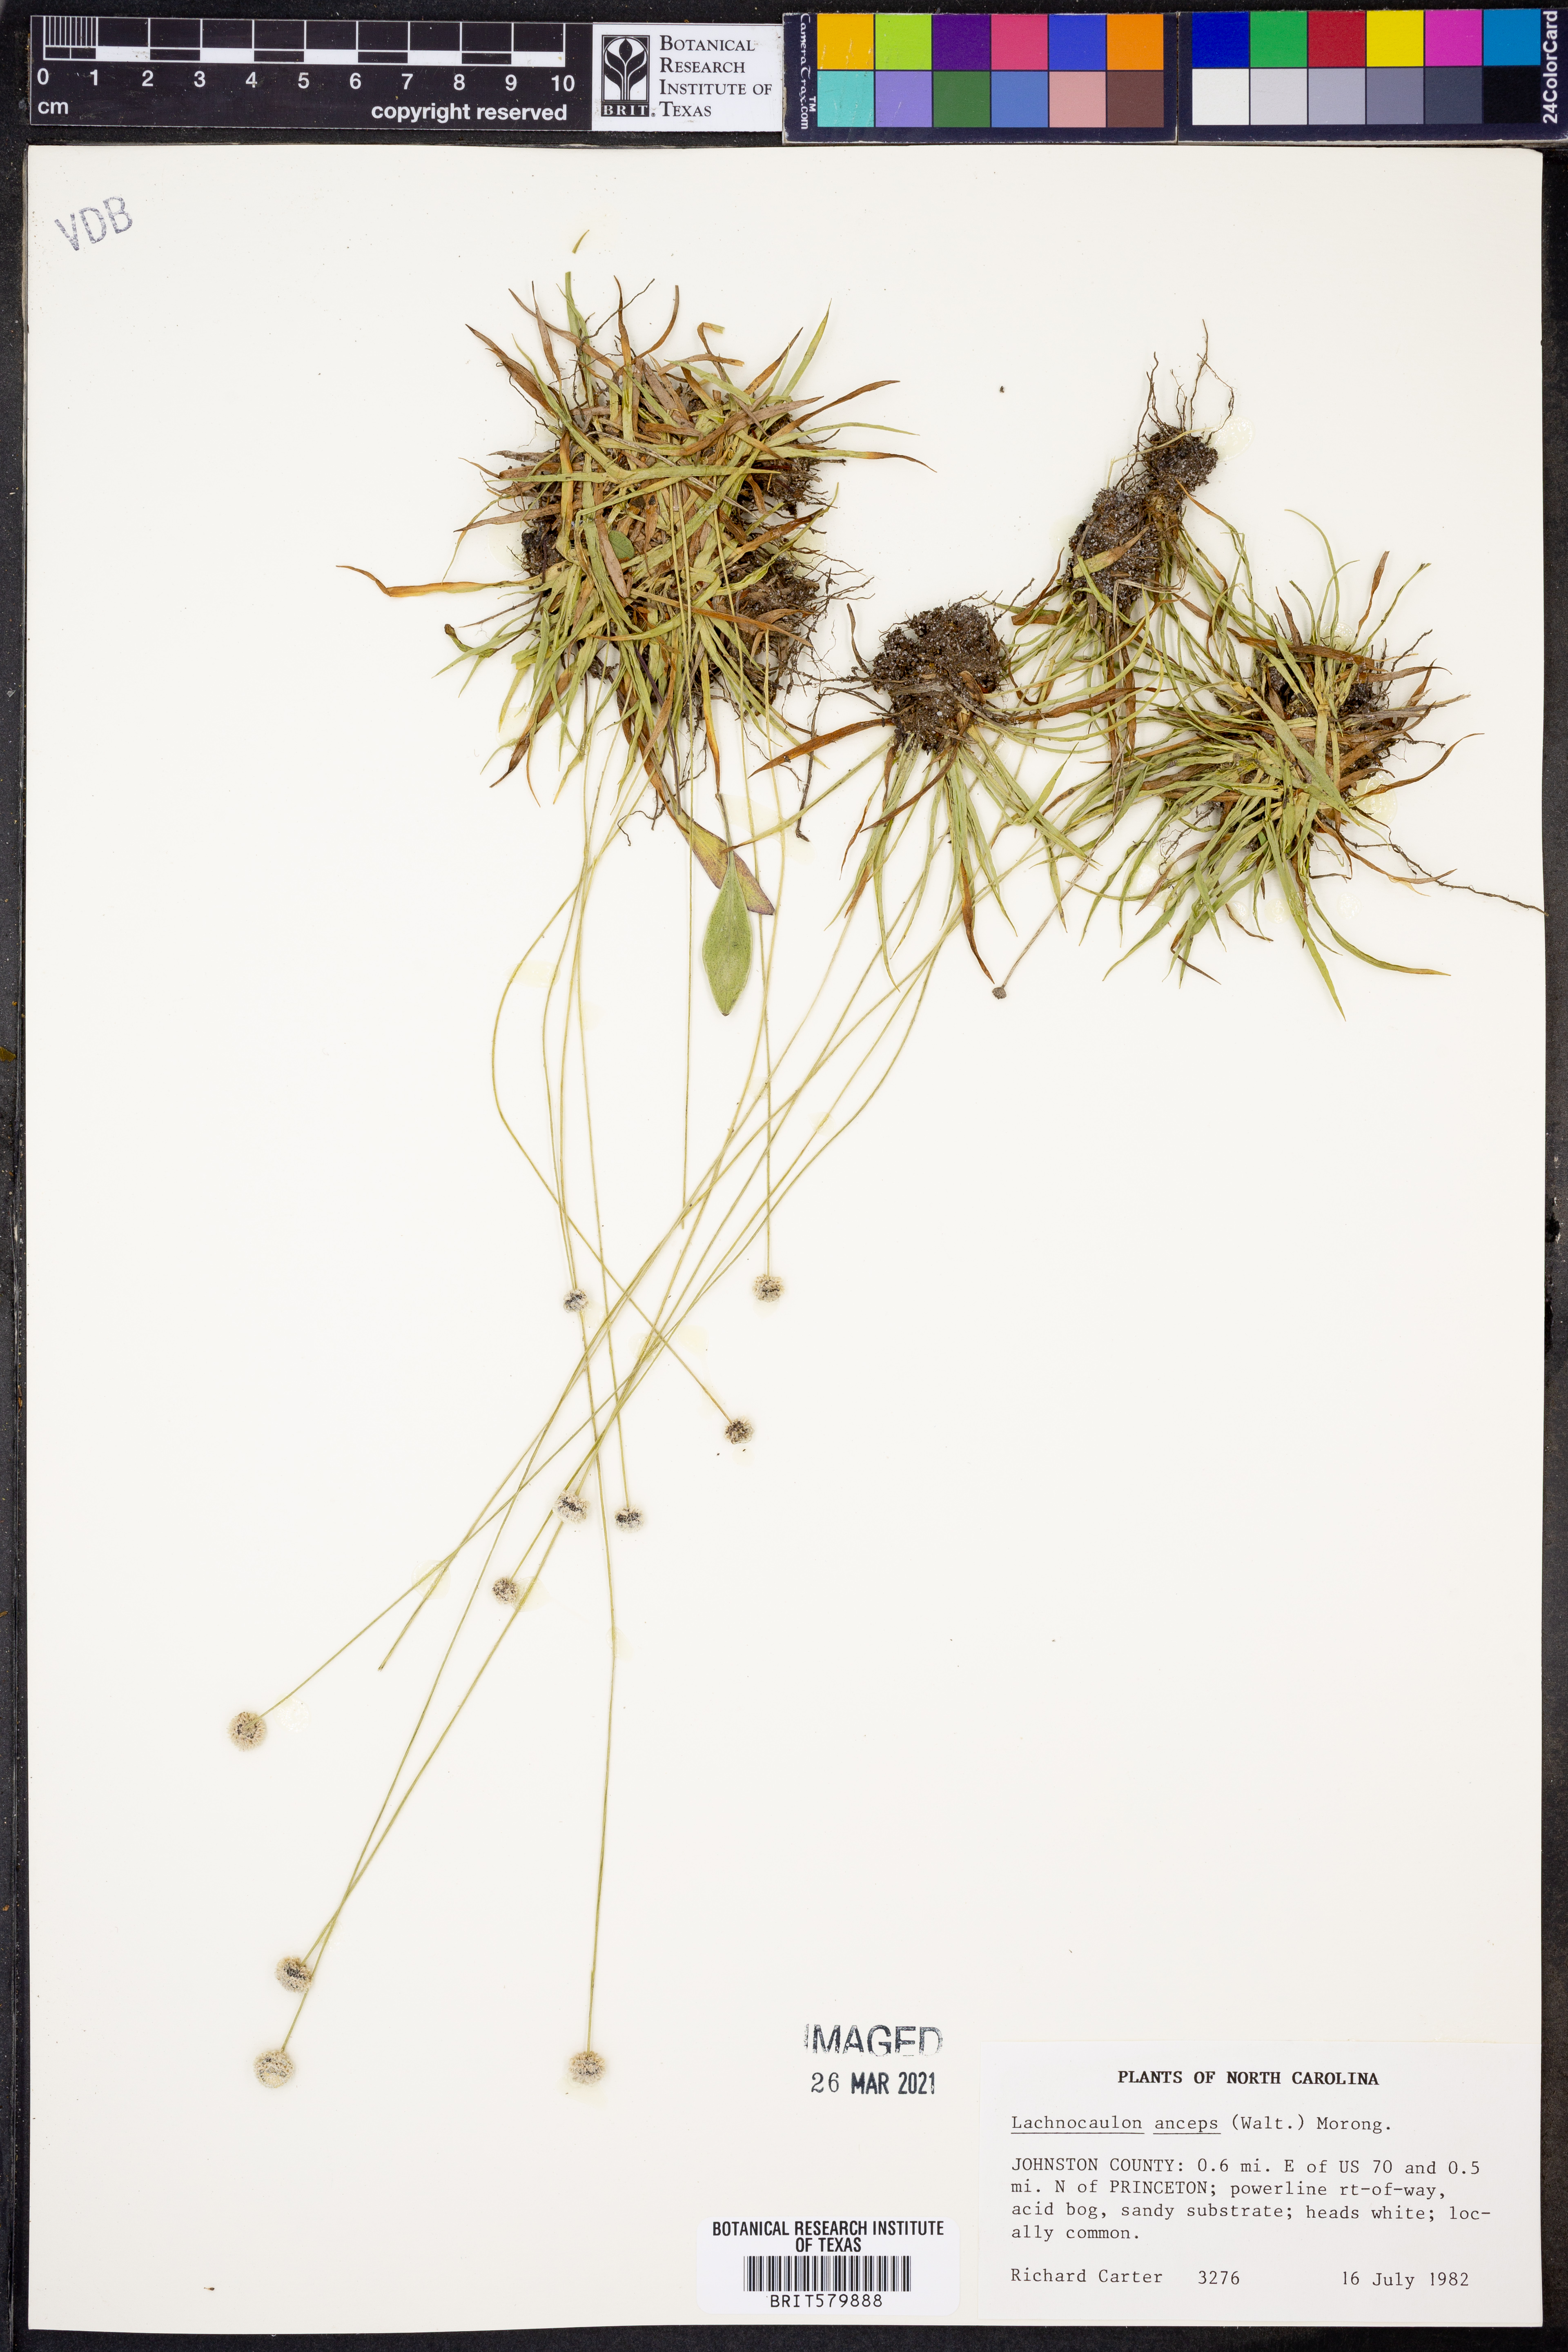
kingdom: Plantae
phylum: Tracheophyta
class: Liliopsida
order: Poales
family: Eriocaulaceae
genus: Paepalanthus
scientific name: Paepalanthus anceps
